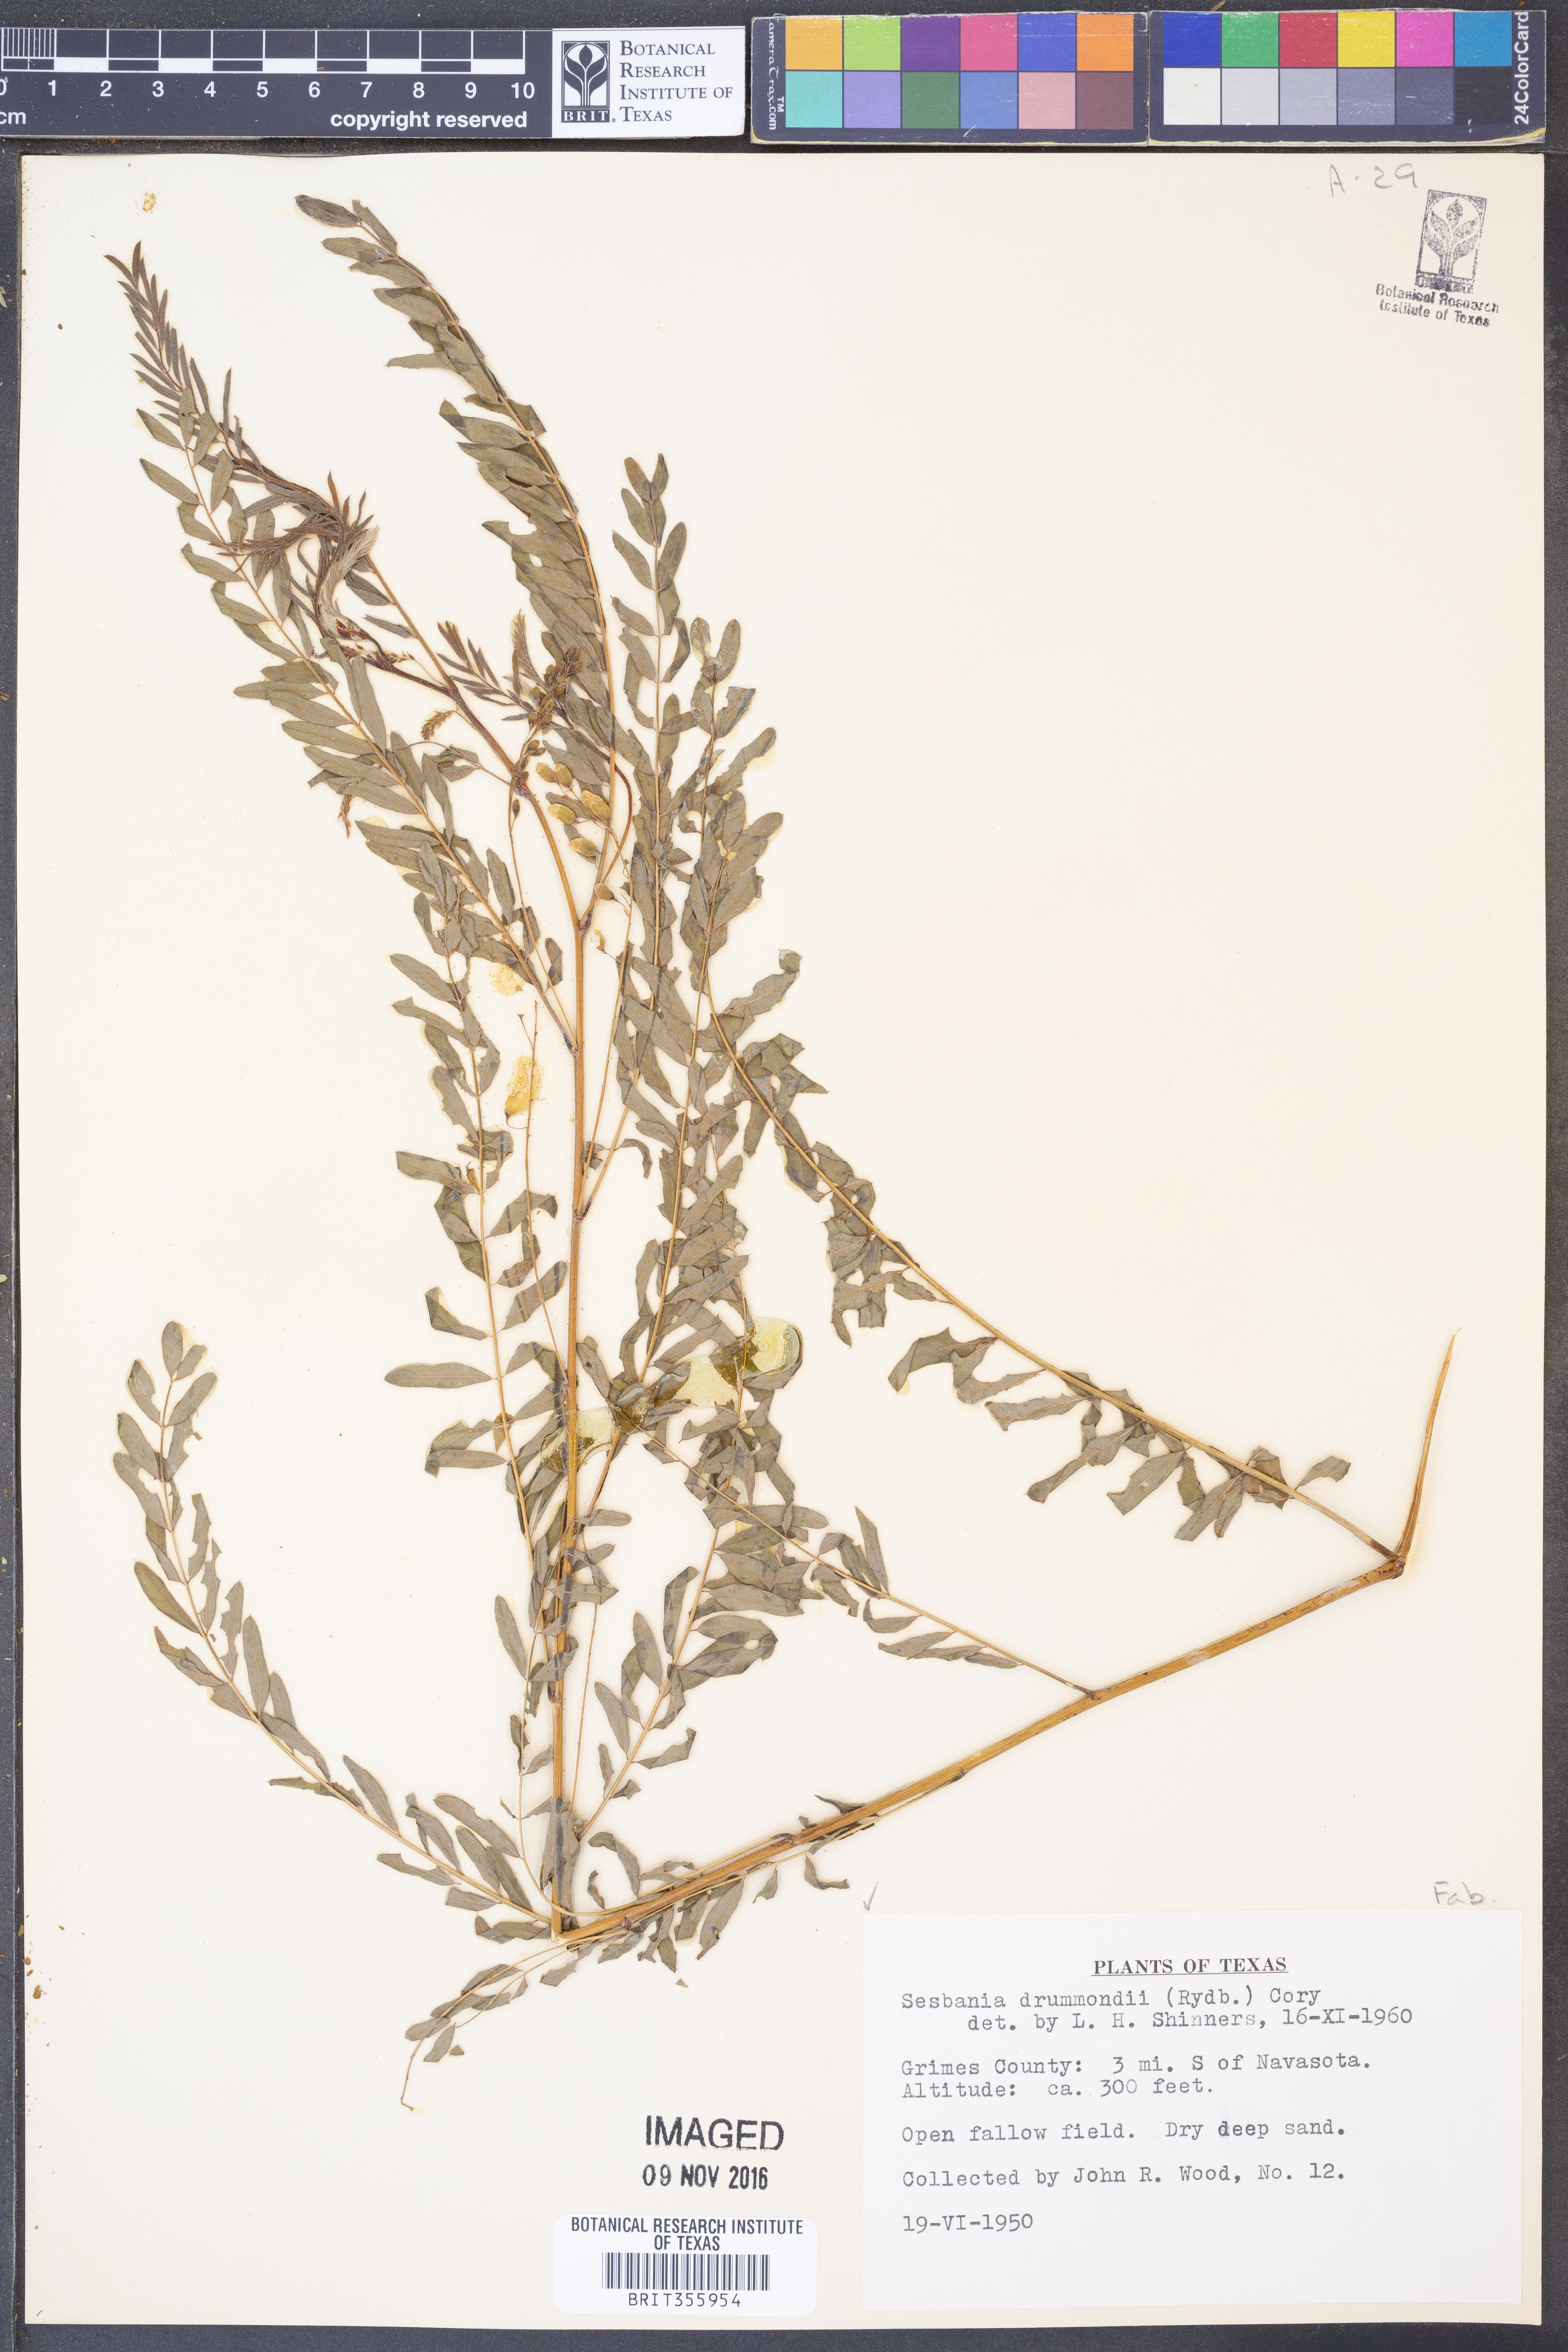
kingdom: Plantae
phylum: Tracheophyta
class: Magnoliopsida
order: Fabales
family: Fabaceae
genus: Sesbania
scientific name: Sesbania drummondii
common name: Poison-bean
